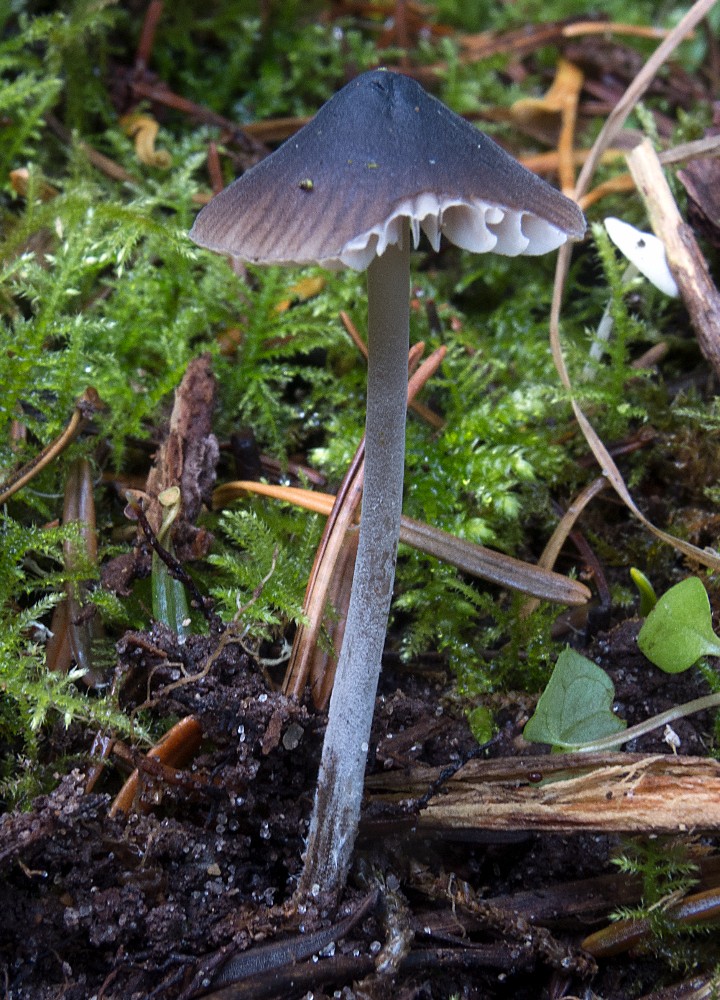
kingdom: Fungi
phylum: Basidiomycota
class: Agaricomycetes
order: Agaricales
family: Tricholomataceae
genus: Mycenella
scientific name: Mycenella salicina
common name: glatsporet dughat
